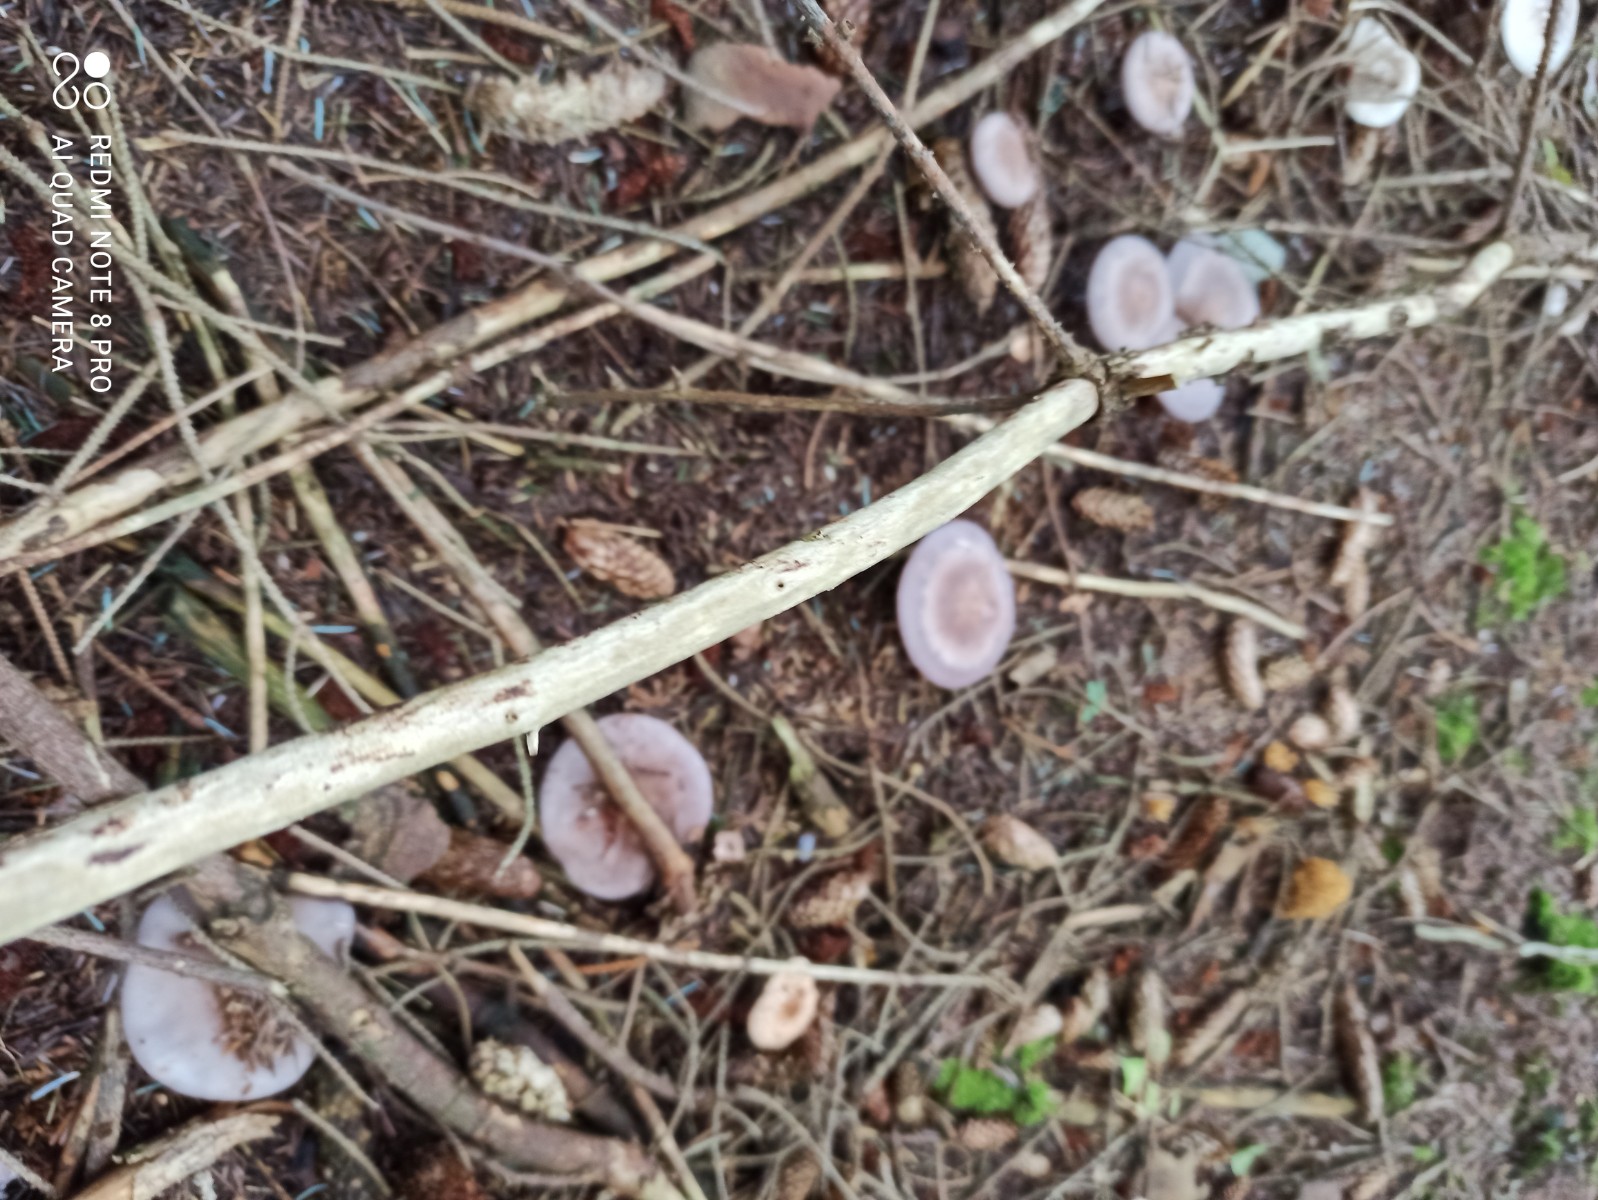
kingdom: Fungi
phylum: Basidiomycota
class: Agaricomycetes
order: Agaricales
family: Tricholomataceae
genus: Lepista
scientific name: Lepista nuda
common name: violet hekseringshat
